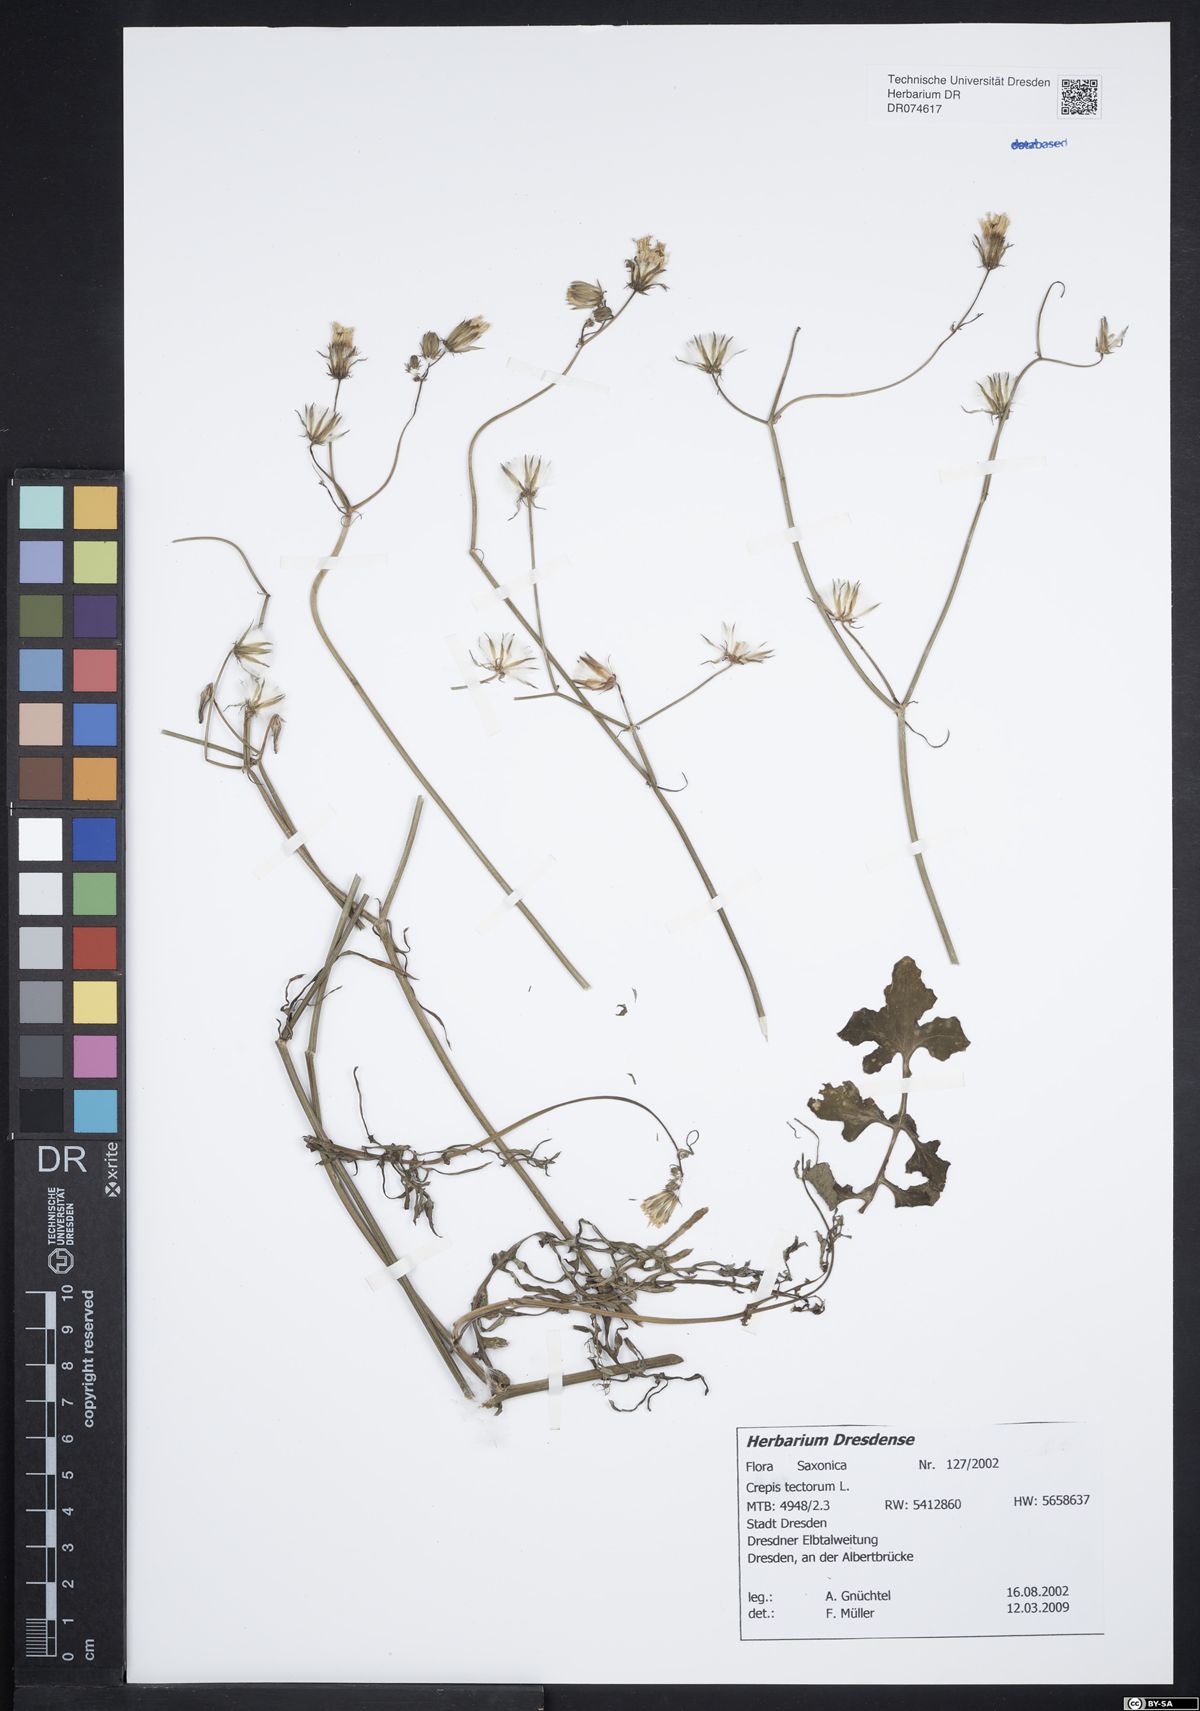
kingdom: Plantae
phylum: Tracheophyta
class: Magnoliopsida
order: Asterales
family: Asteraceae
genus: Crepis
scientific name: Crepis tectorum
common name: Narrow-leaved hawk's-beard
